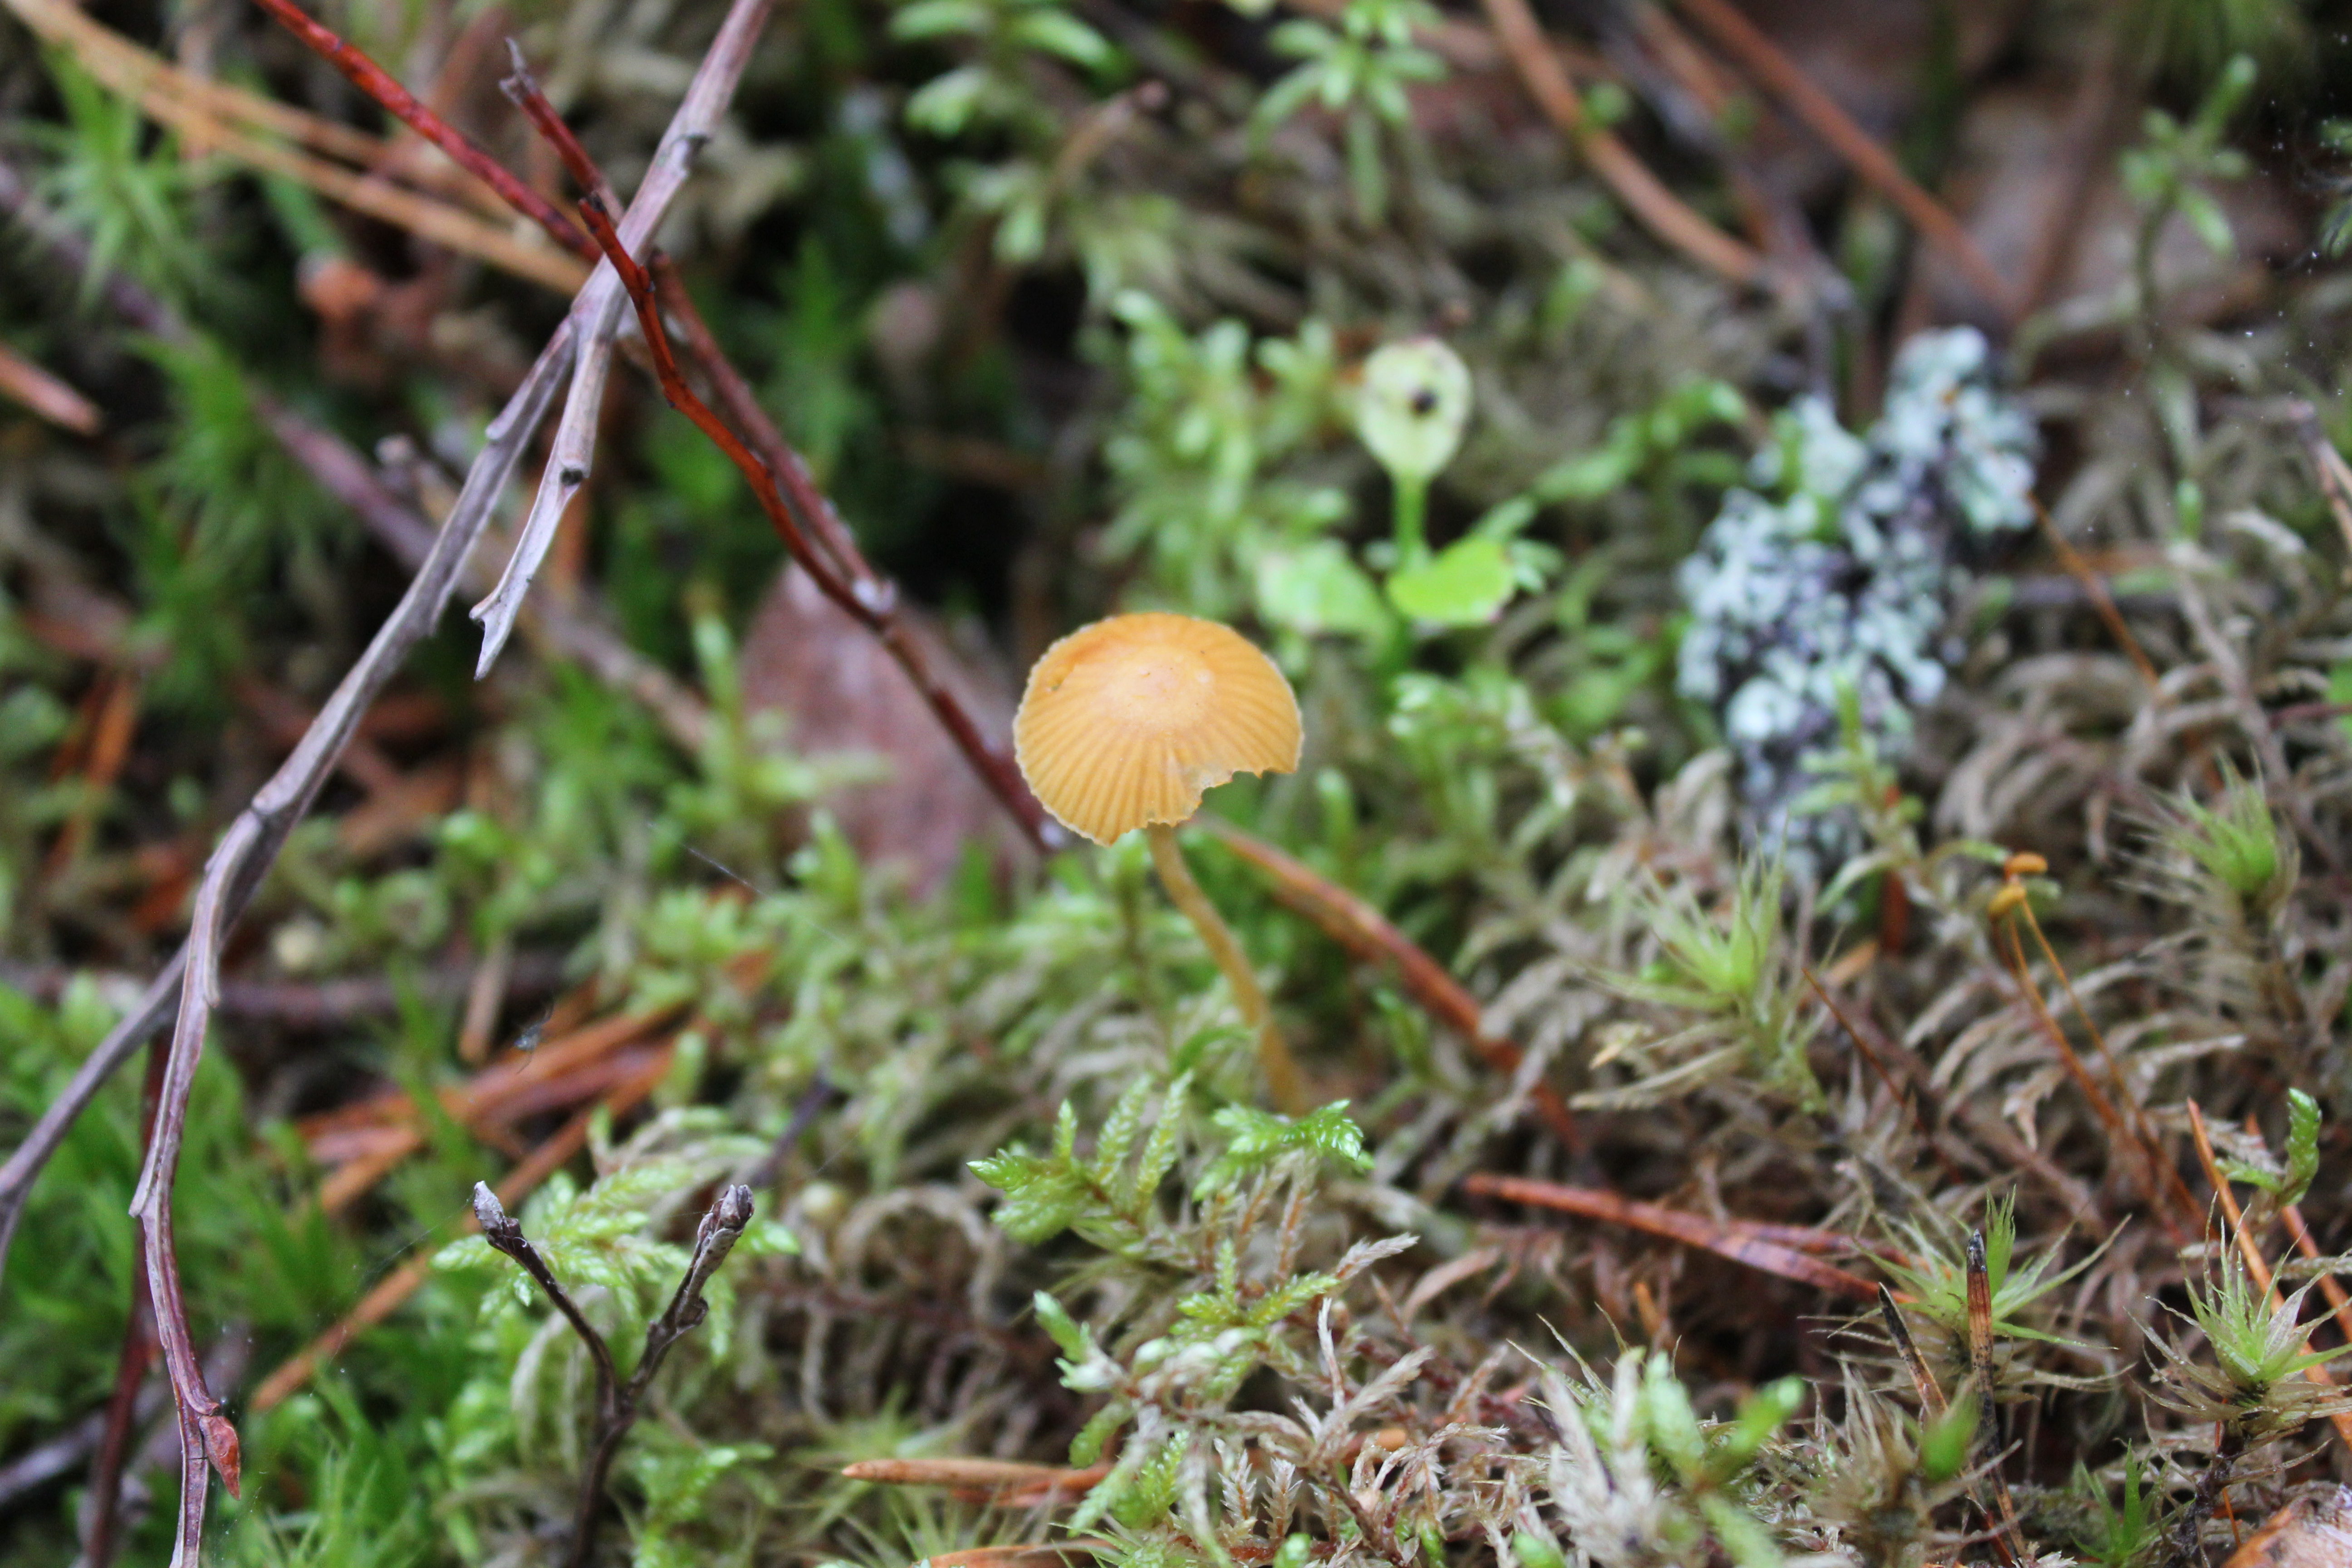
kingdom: Fungi
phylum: Basidiomycota
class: Agaricomycetes
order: Agaricales
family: Hymenogastraceae
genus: Galerina
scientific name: Galerina pumila
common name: Dwarf bell
